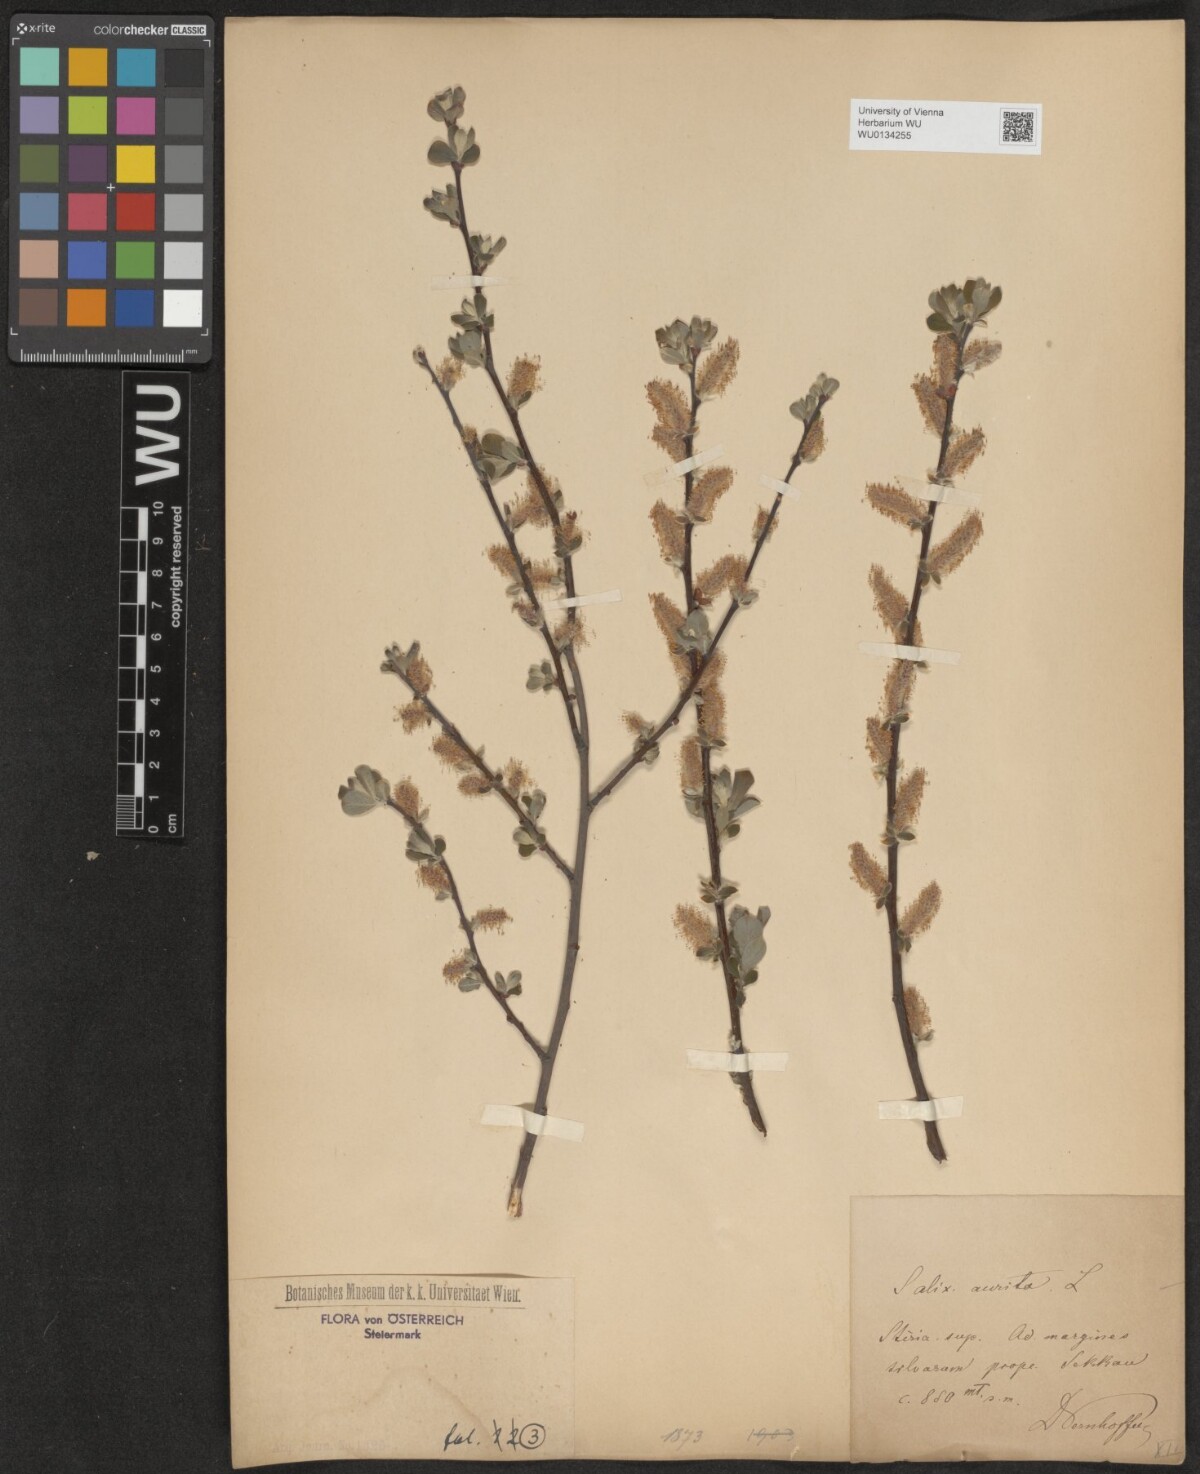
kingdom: Plantae
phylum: Tracheophyta
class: Magnoliopsida
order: Malpighiales
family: Salicaceae
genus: Salix
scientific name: Salix aurita
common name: Eared willow
